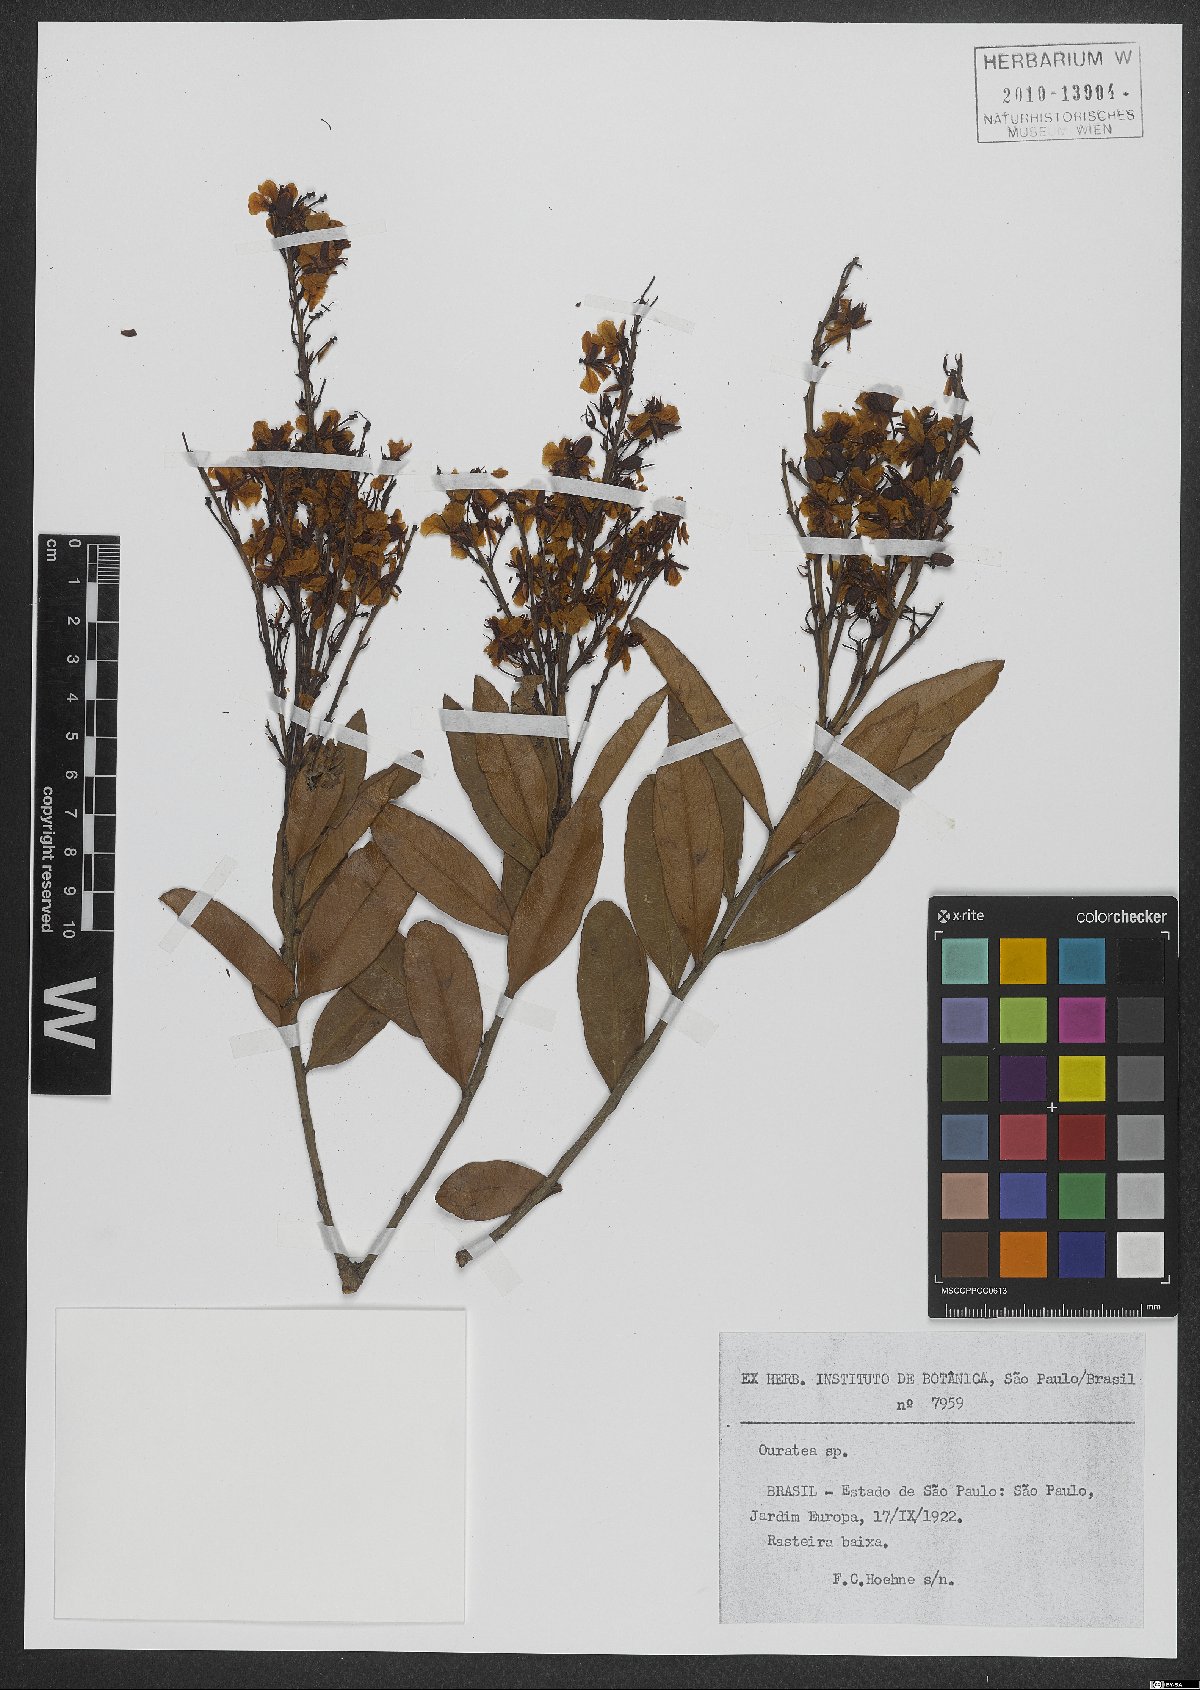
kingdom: Plantae
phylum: Tracheophyta
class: Magnoliopsida
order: Malpighiales
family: Ochnaceae
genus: Ouratea
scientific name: Ouratea
